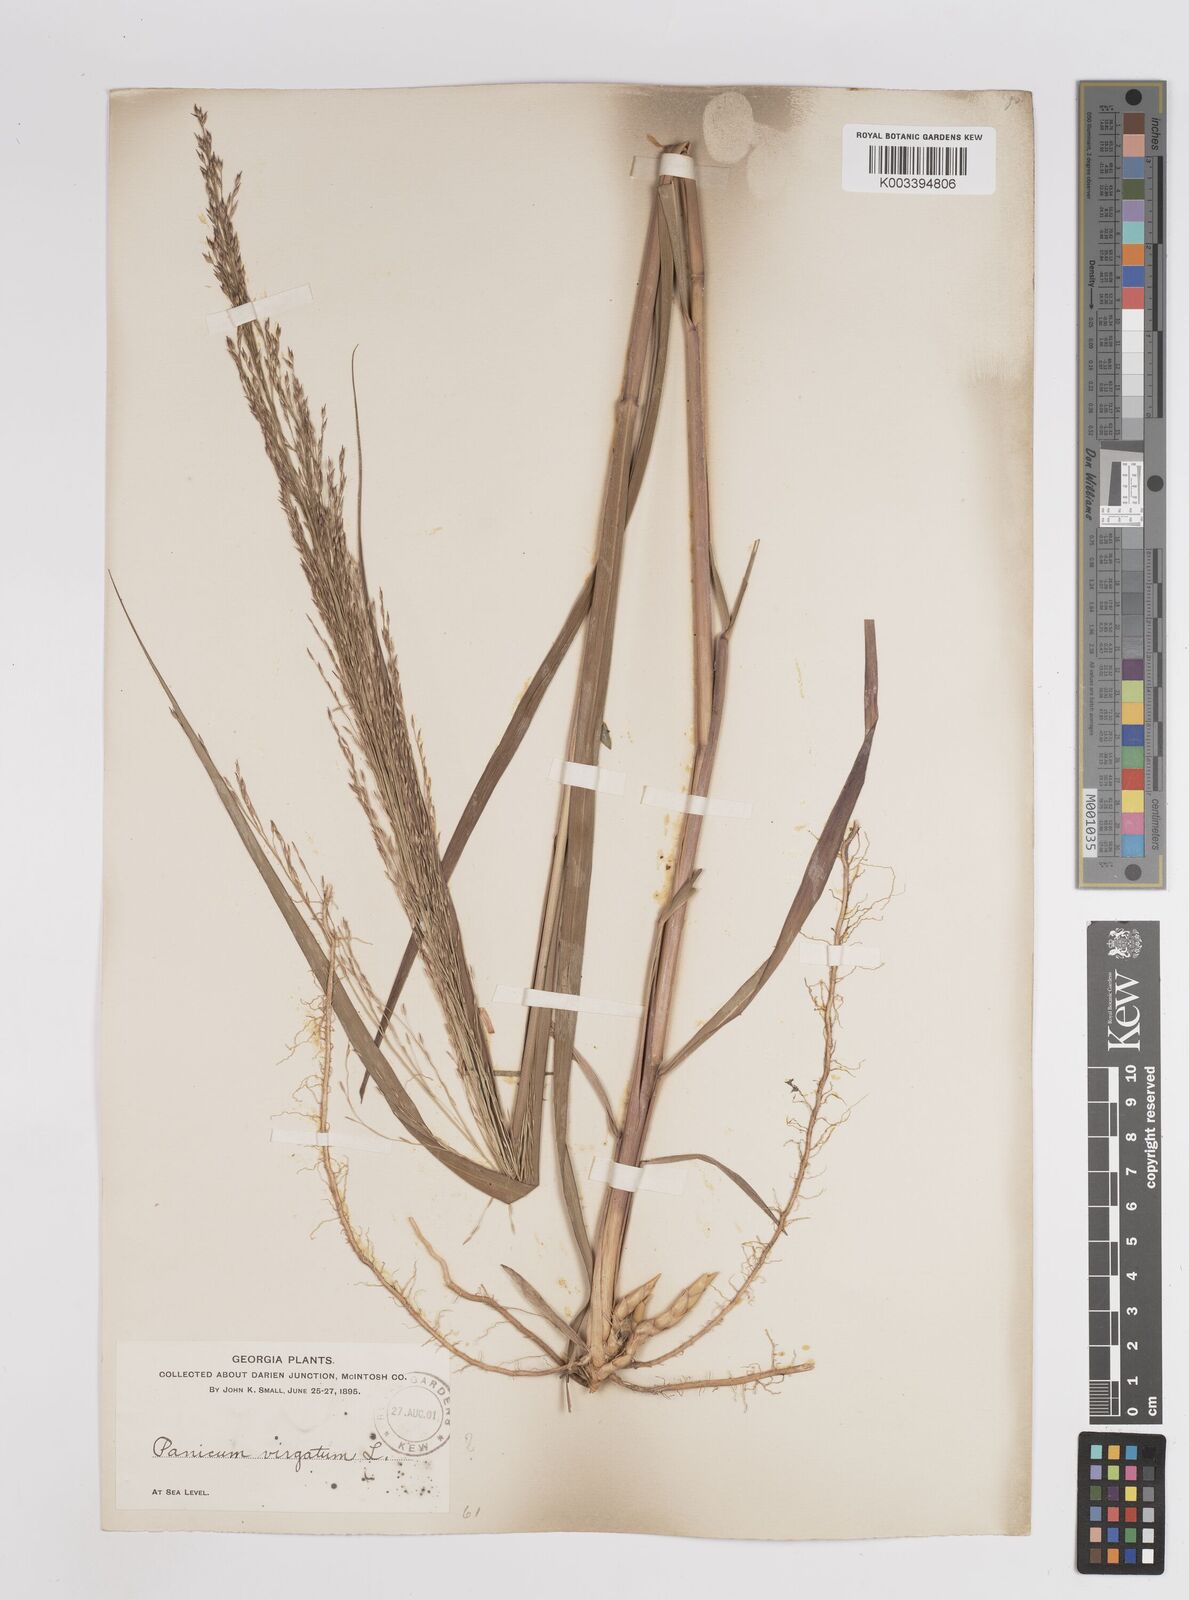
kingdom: Plantae
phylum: Tracheophyta
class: Liliopsida
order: Poales
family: Poaceae
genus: Panicum
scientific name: Panicum virgatum
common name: Switchgrass
